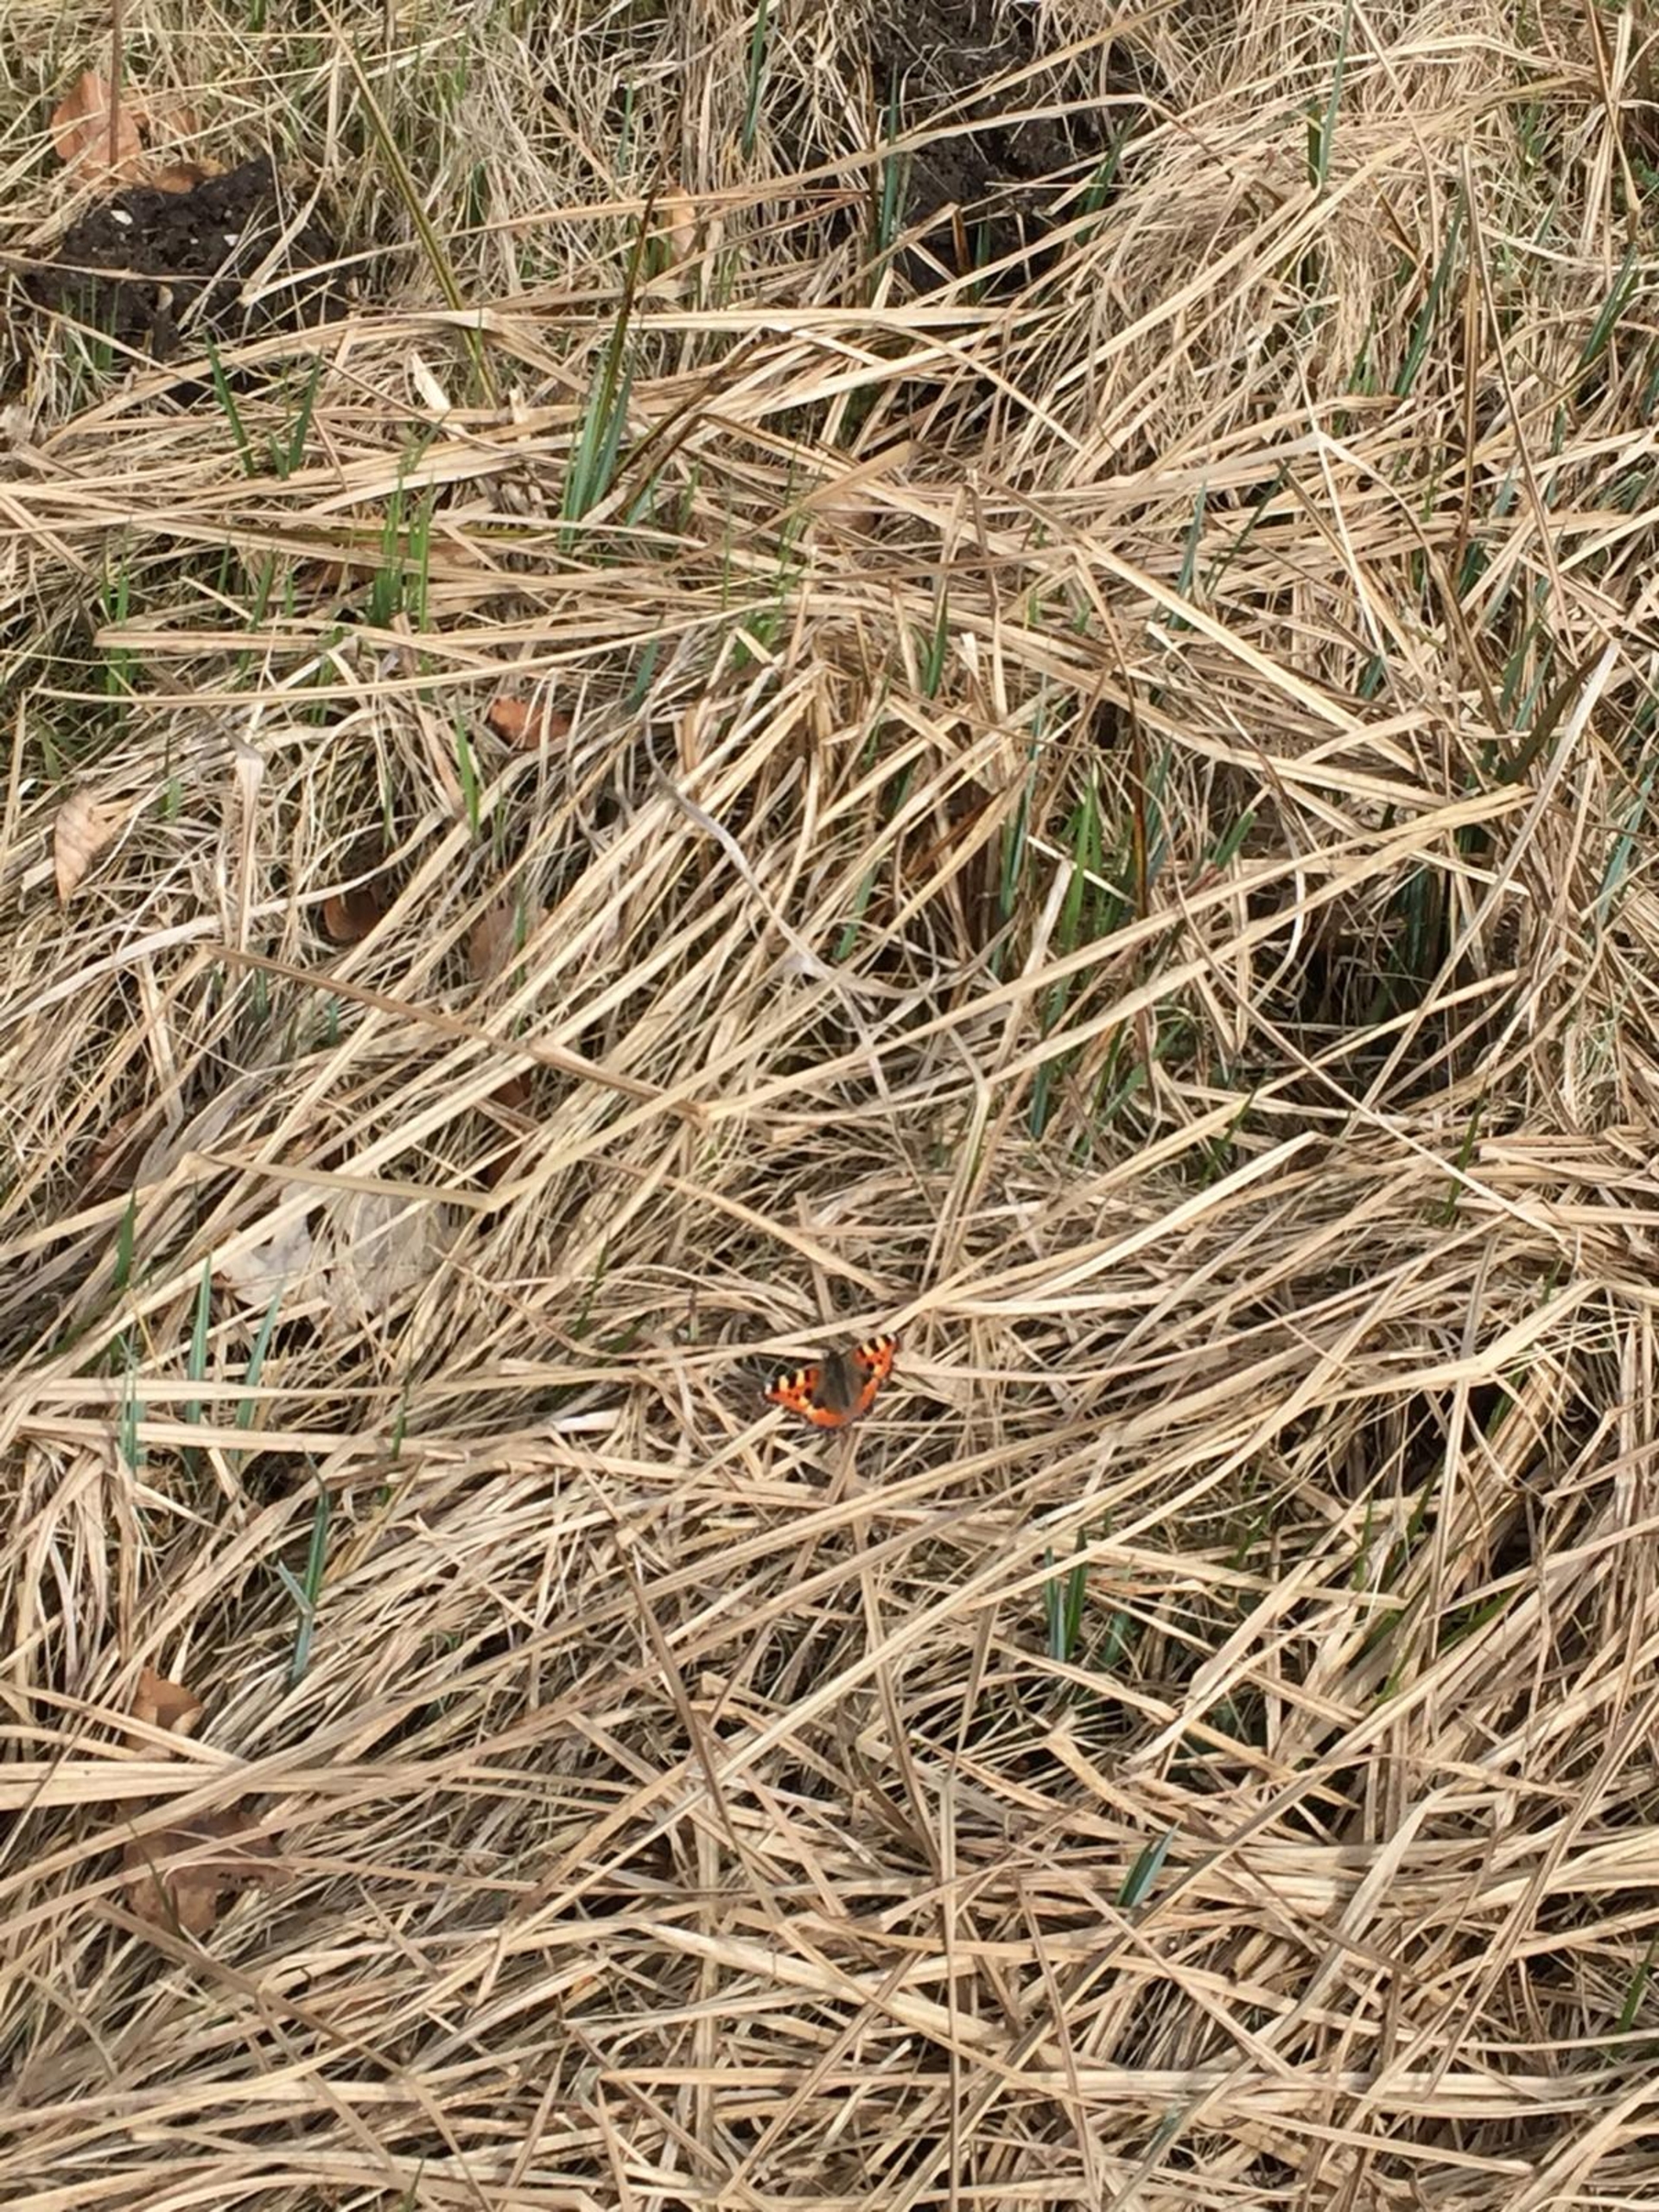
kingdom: Animalia
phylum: Arthropoda
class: Insecta
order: Lepidoptera
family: Nymphalidae
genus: Aglais
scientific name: Aglais urticae
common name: Nældens takvinge
